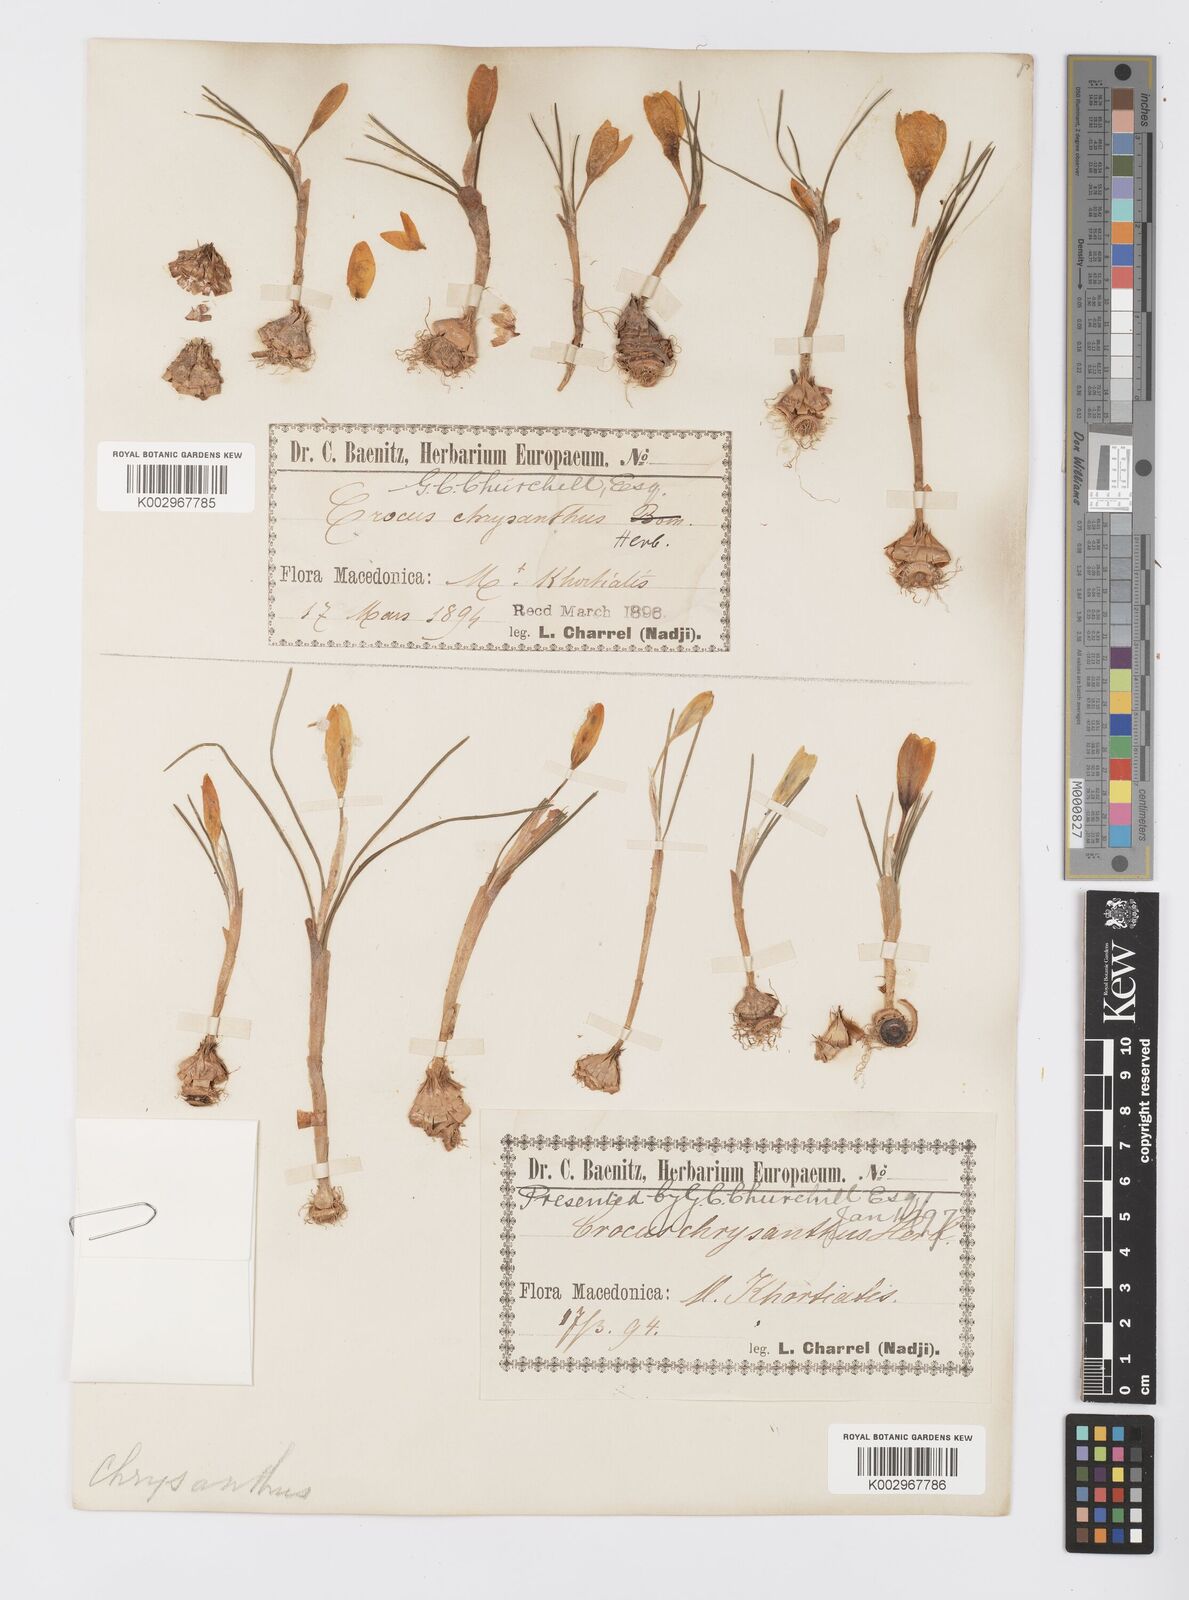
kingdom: Plantae
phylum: Tracheophyta
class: Liliopsida
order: Asparagales
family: Iridaceae
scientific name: Iridaceae
